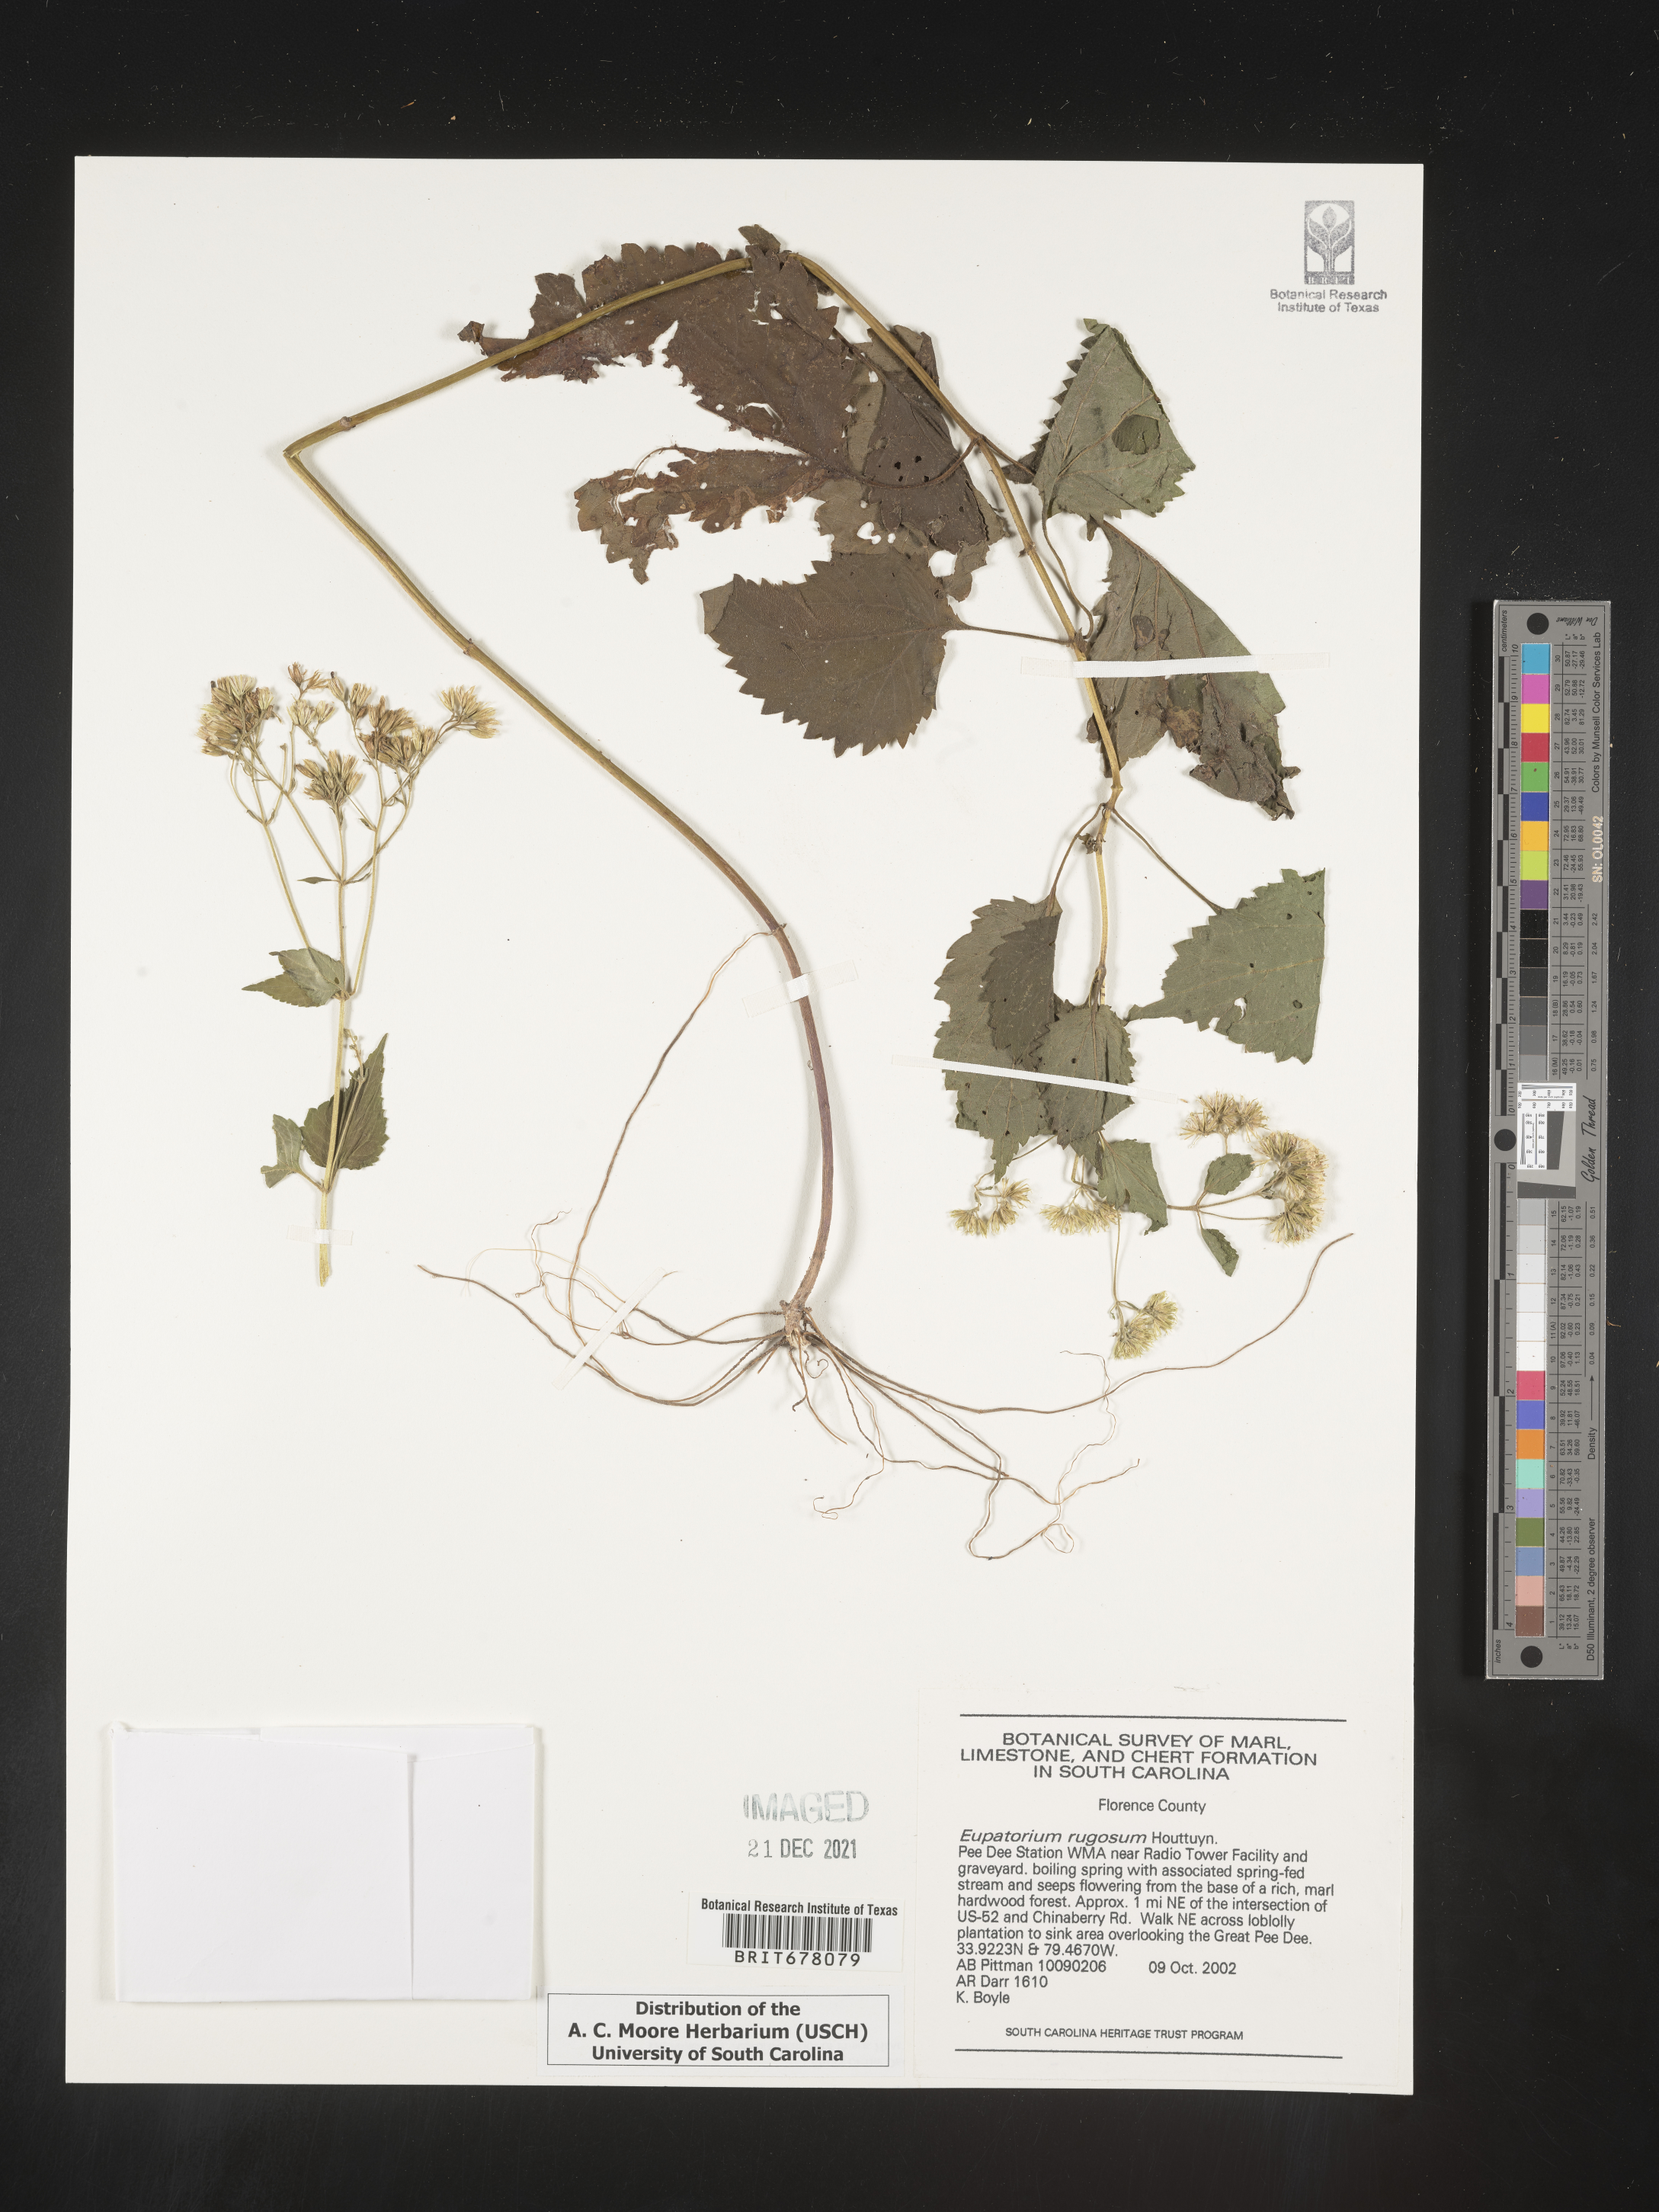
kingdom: Plantae
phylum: Tracheophyta
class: Magnoliopsida
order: Asterales
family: Asteraceae
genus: Eupatorium
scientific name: Eupatorium
